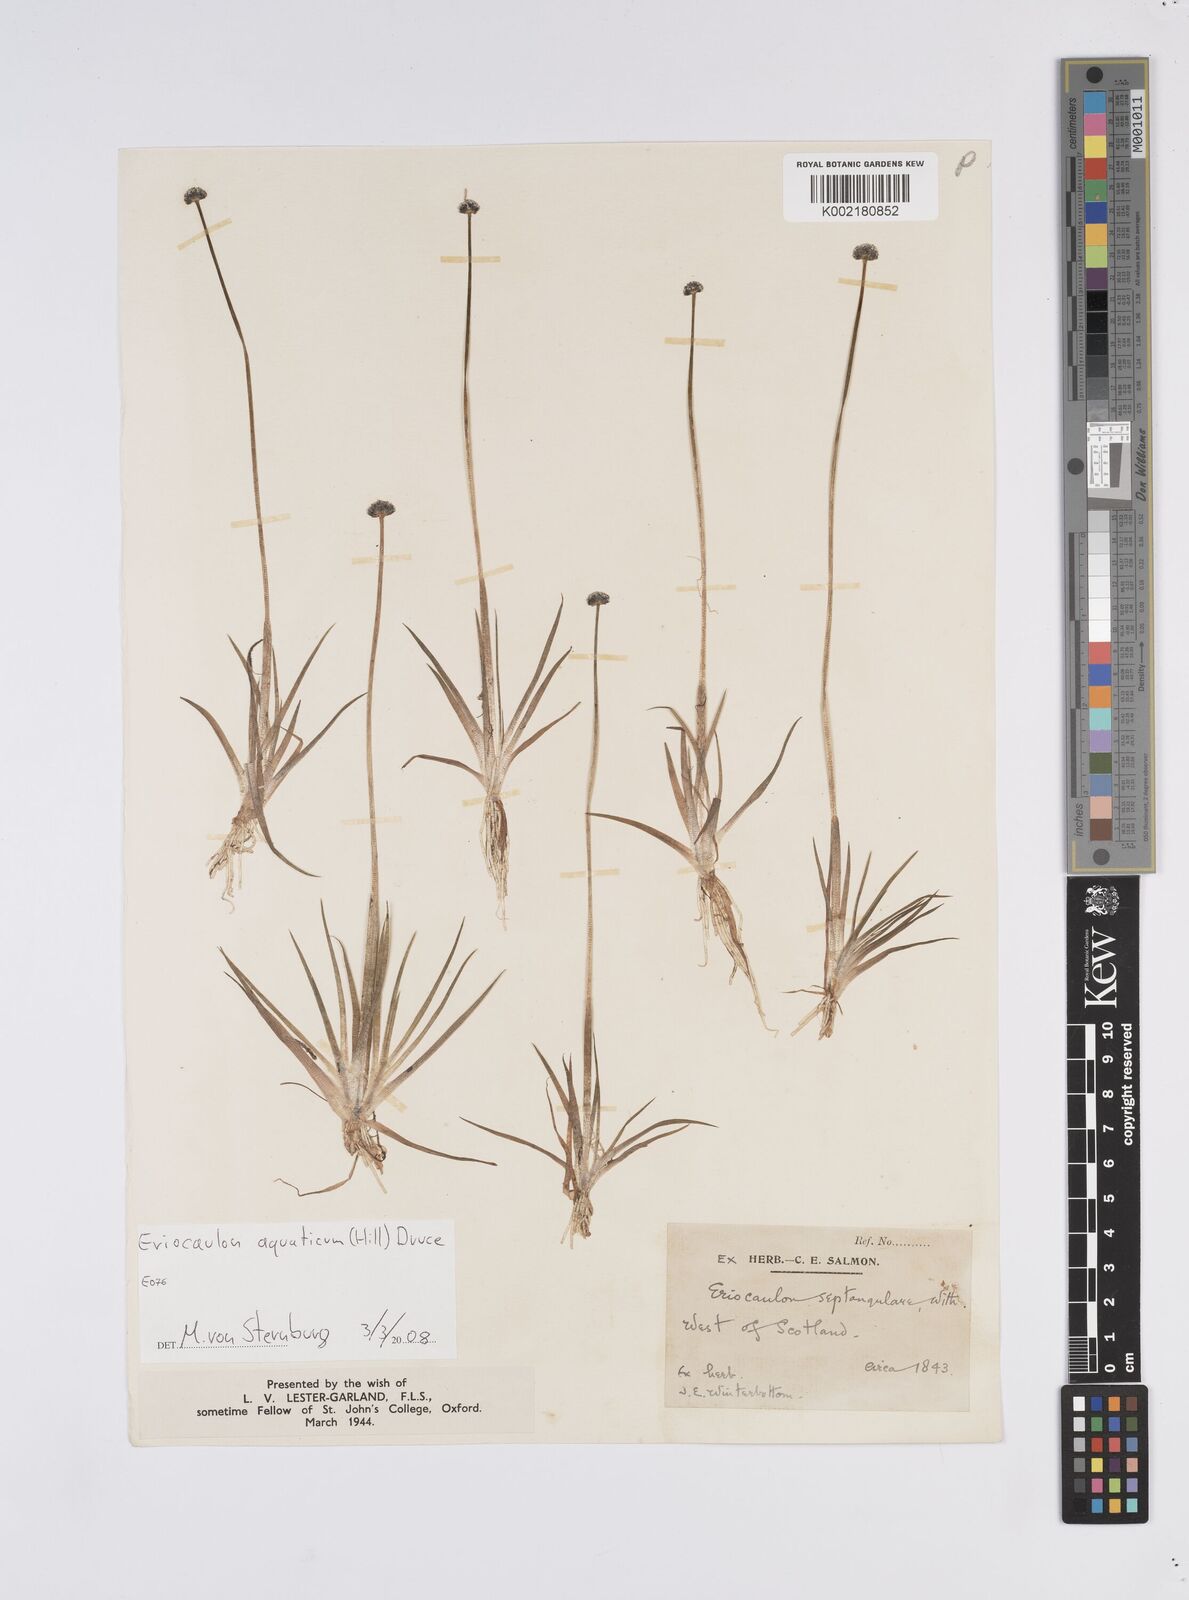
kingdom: Plantae
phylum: Tracheophyta
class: Liliopsida
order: Poales
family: Eriocaulaceae
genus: Eriocaulon
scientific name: Eriocaulon aquaticum
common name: Pipewort
